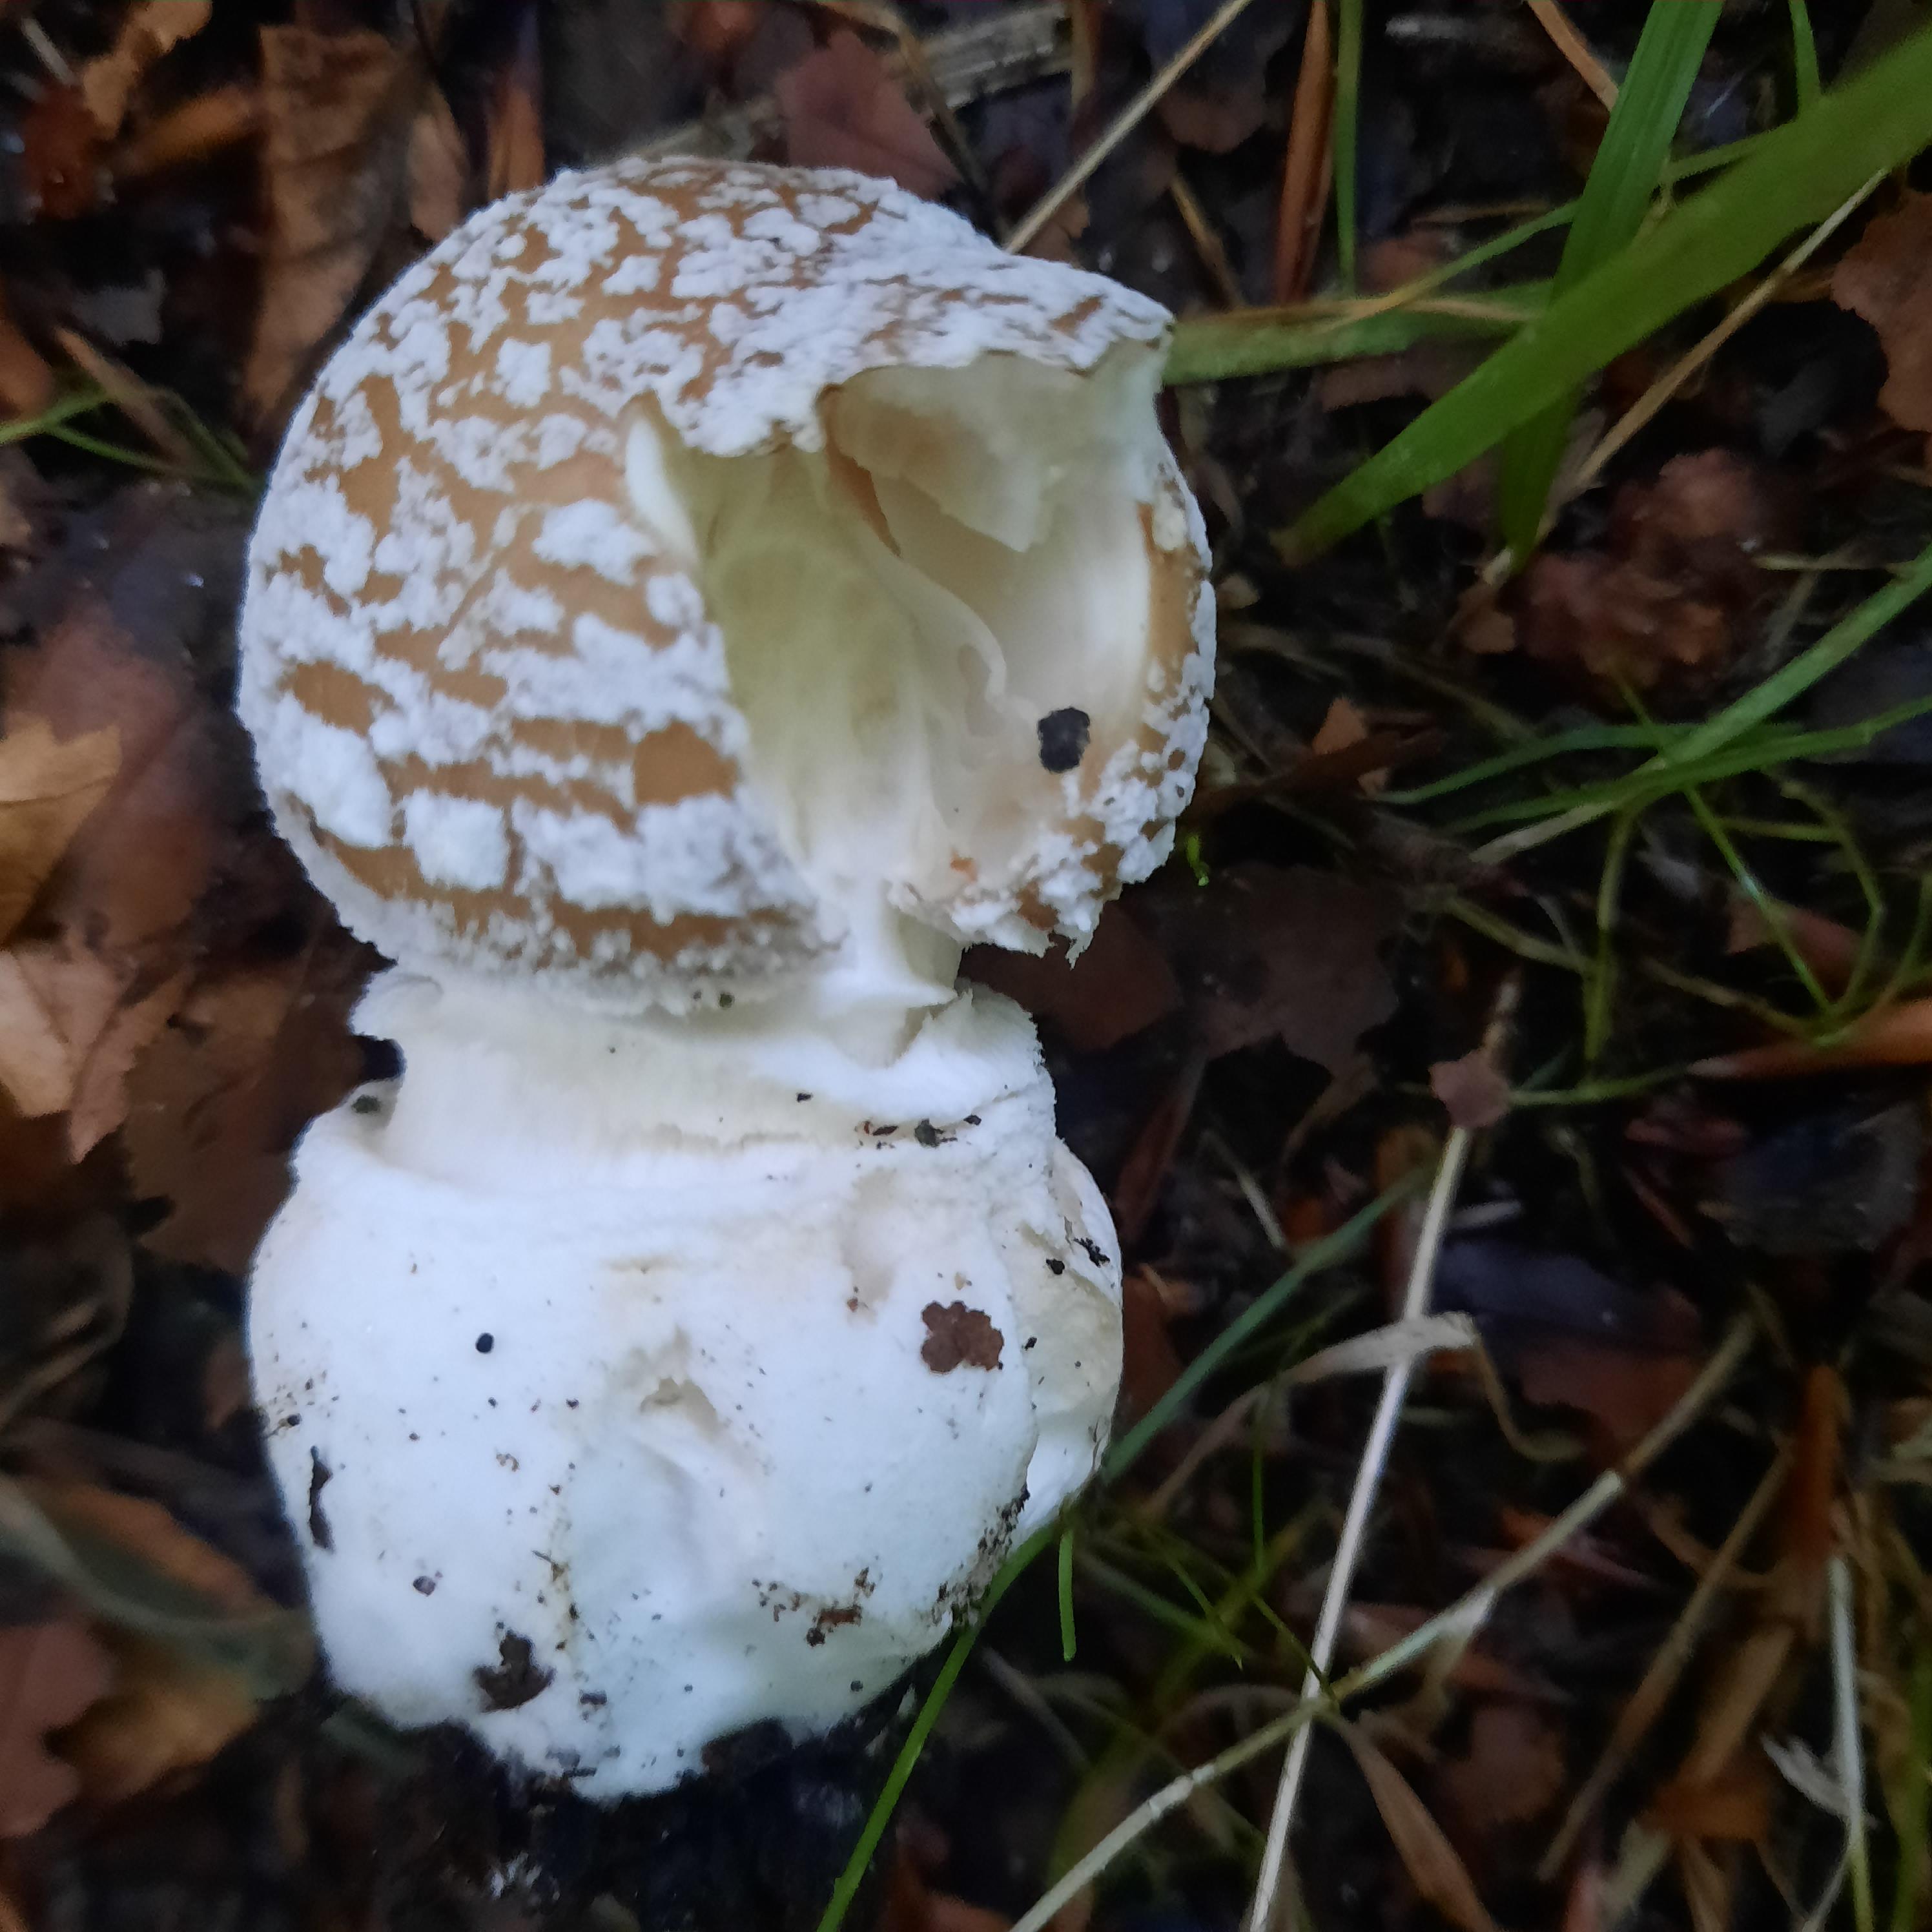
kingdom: Fungi
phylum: Basidiomycota
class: Agaricomycetes
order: Agaricales
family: Amanitaceae
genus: Amanita
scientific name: Amanita pantherina
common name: panter-fluesvamp
